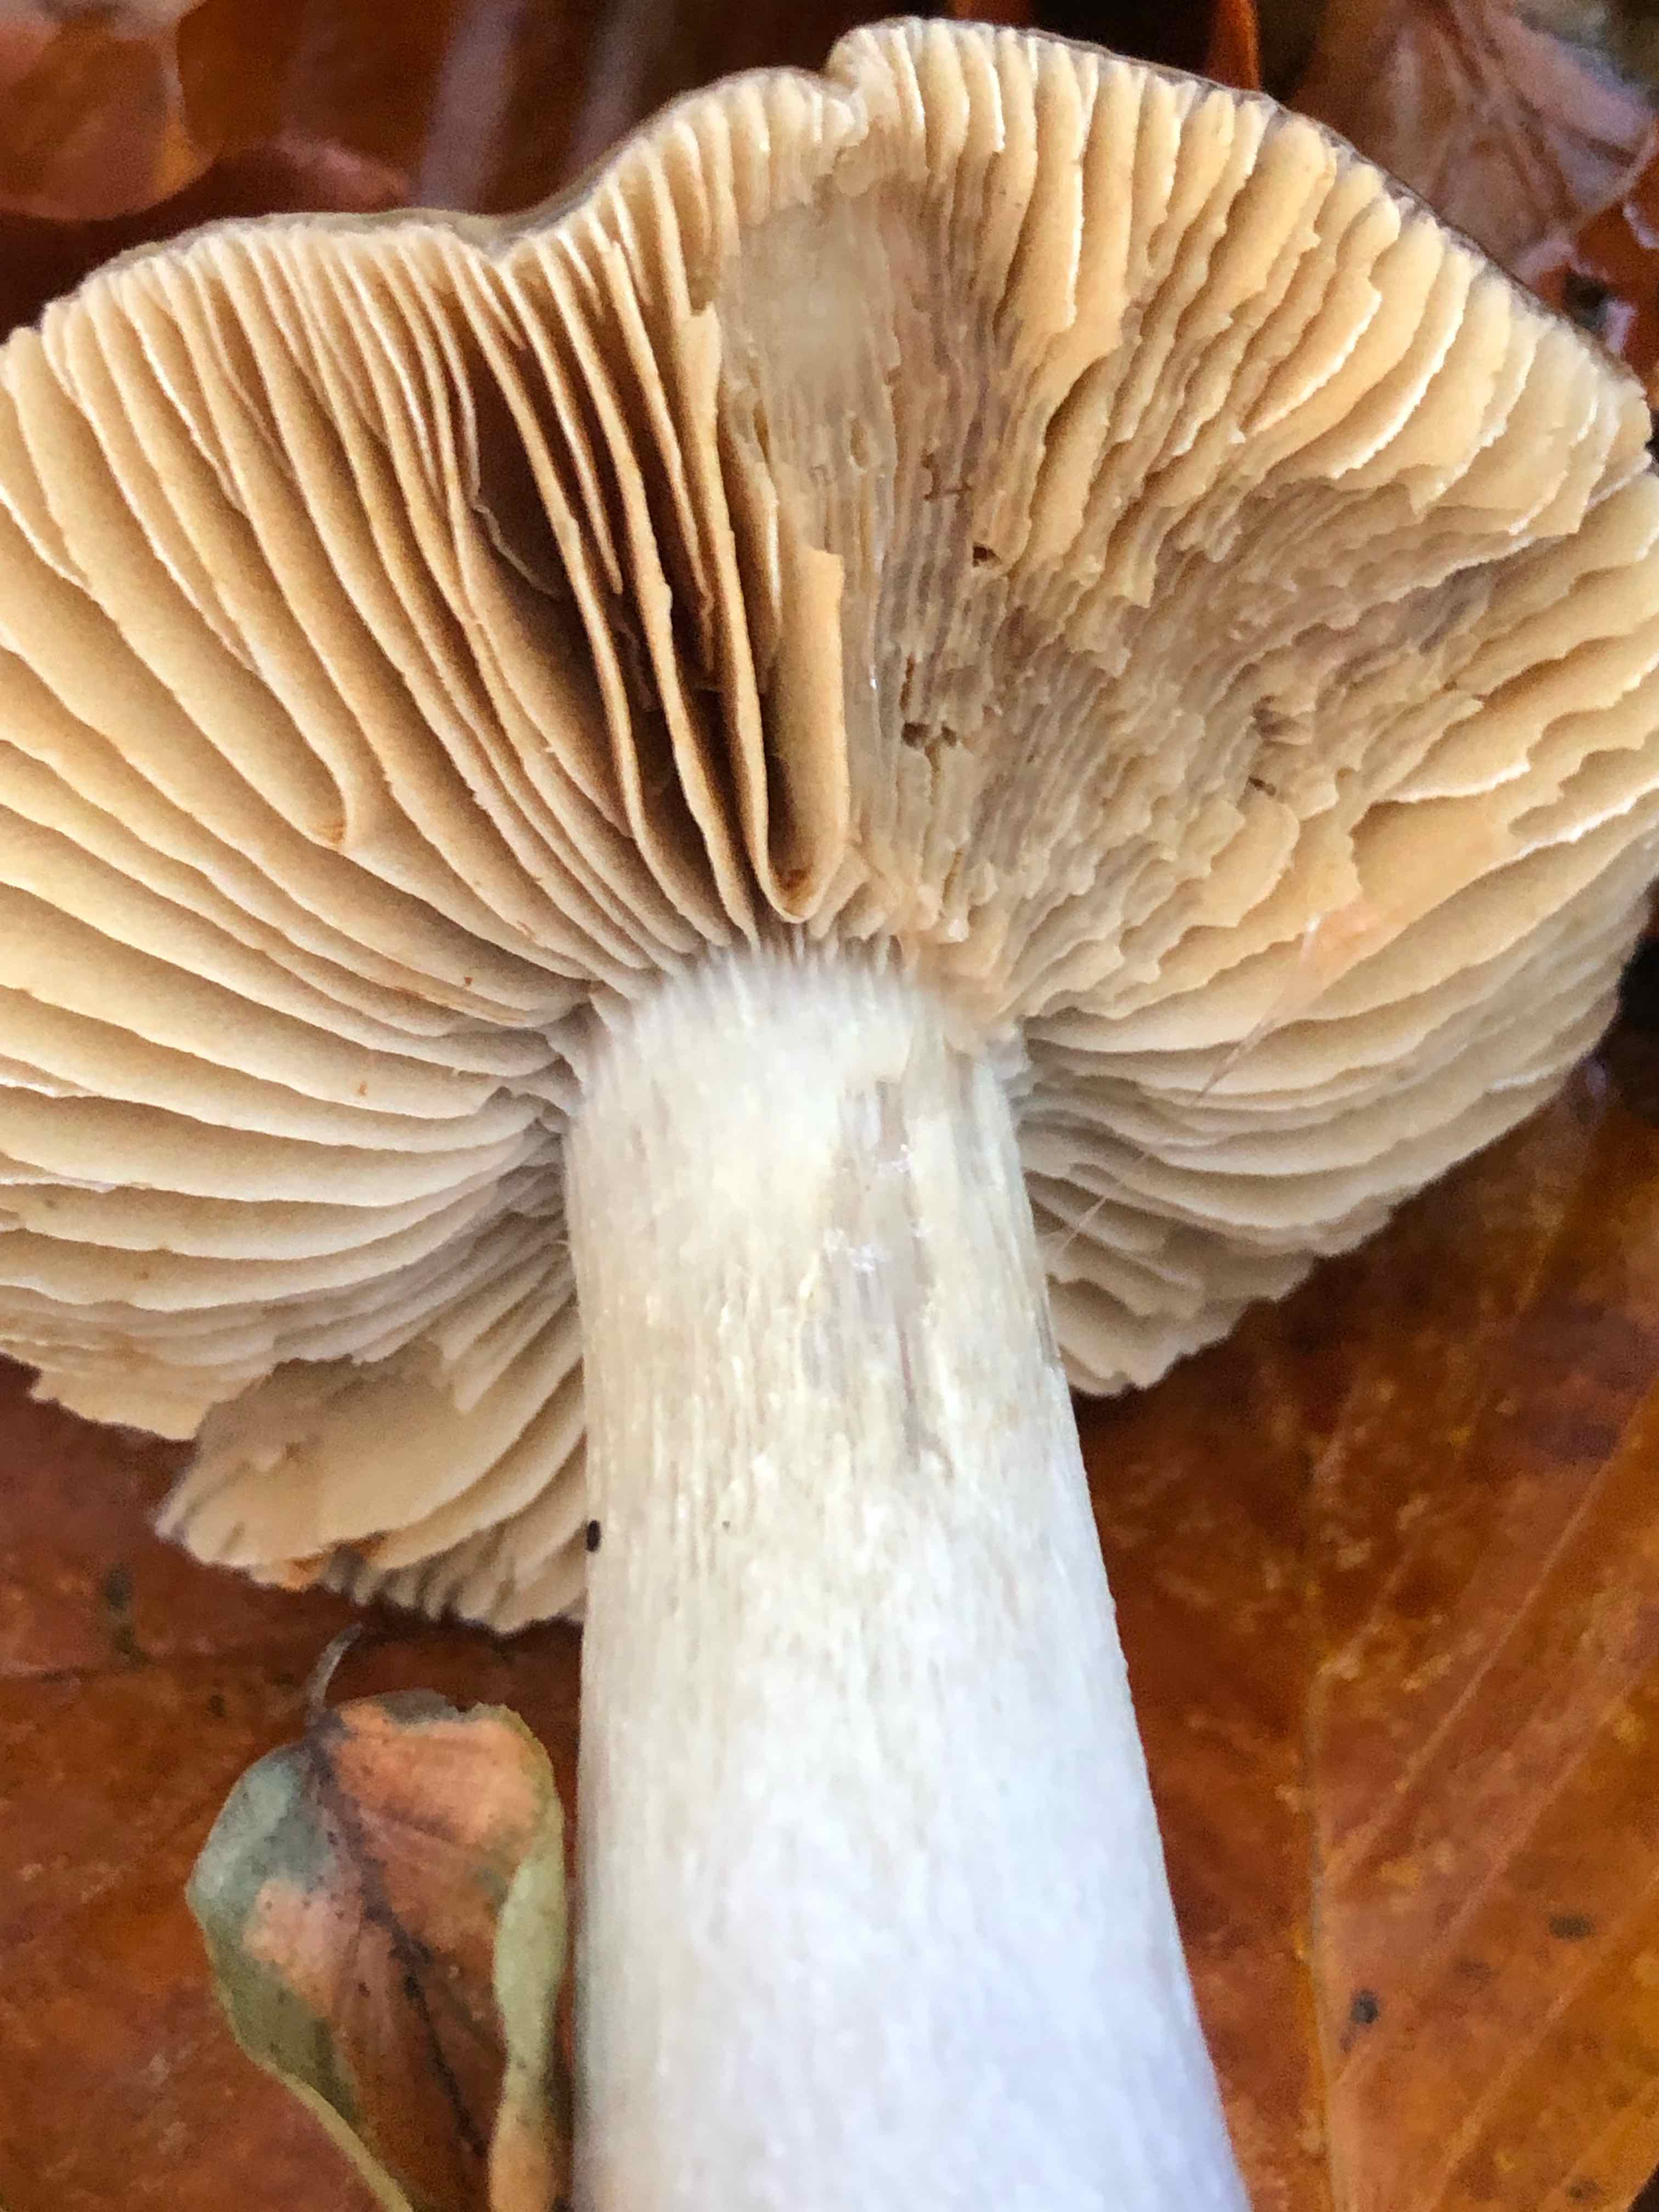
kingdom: Fungi
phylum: Basidiomycota
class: Agaricomycetes
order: Agaricales
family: Cortinariaceae
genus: Cortinarius
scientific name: Cortinarius elatior
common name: høj slørhat
